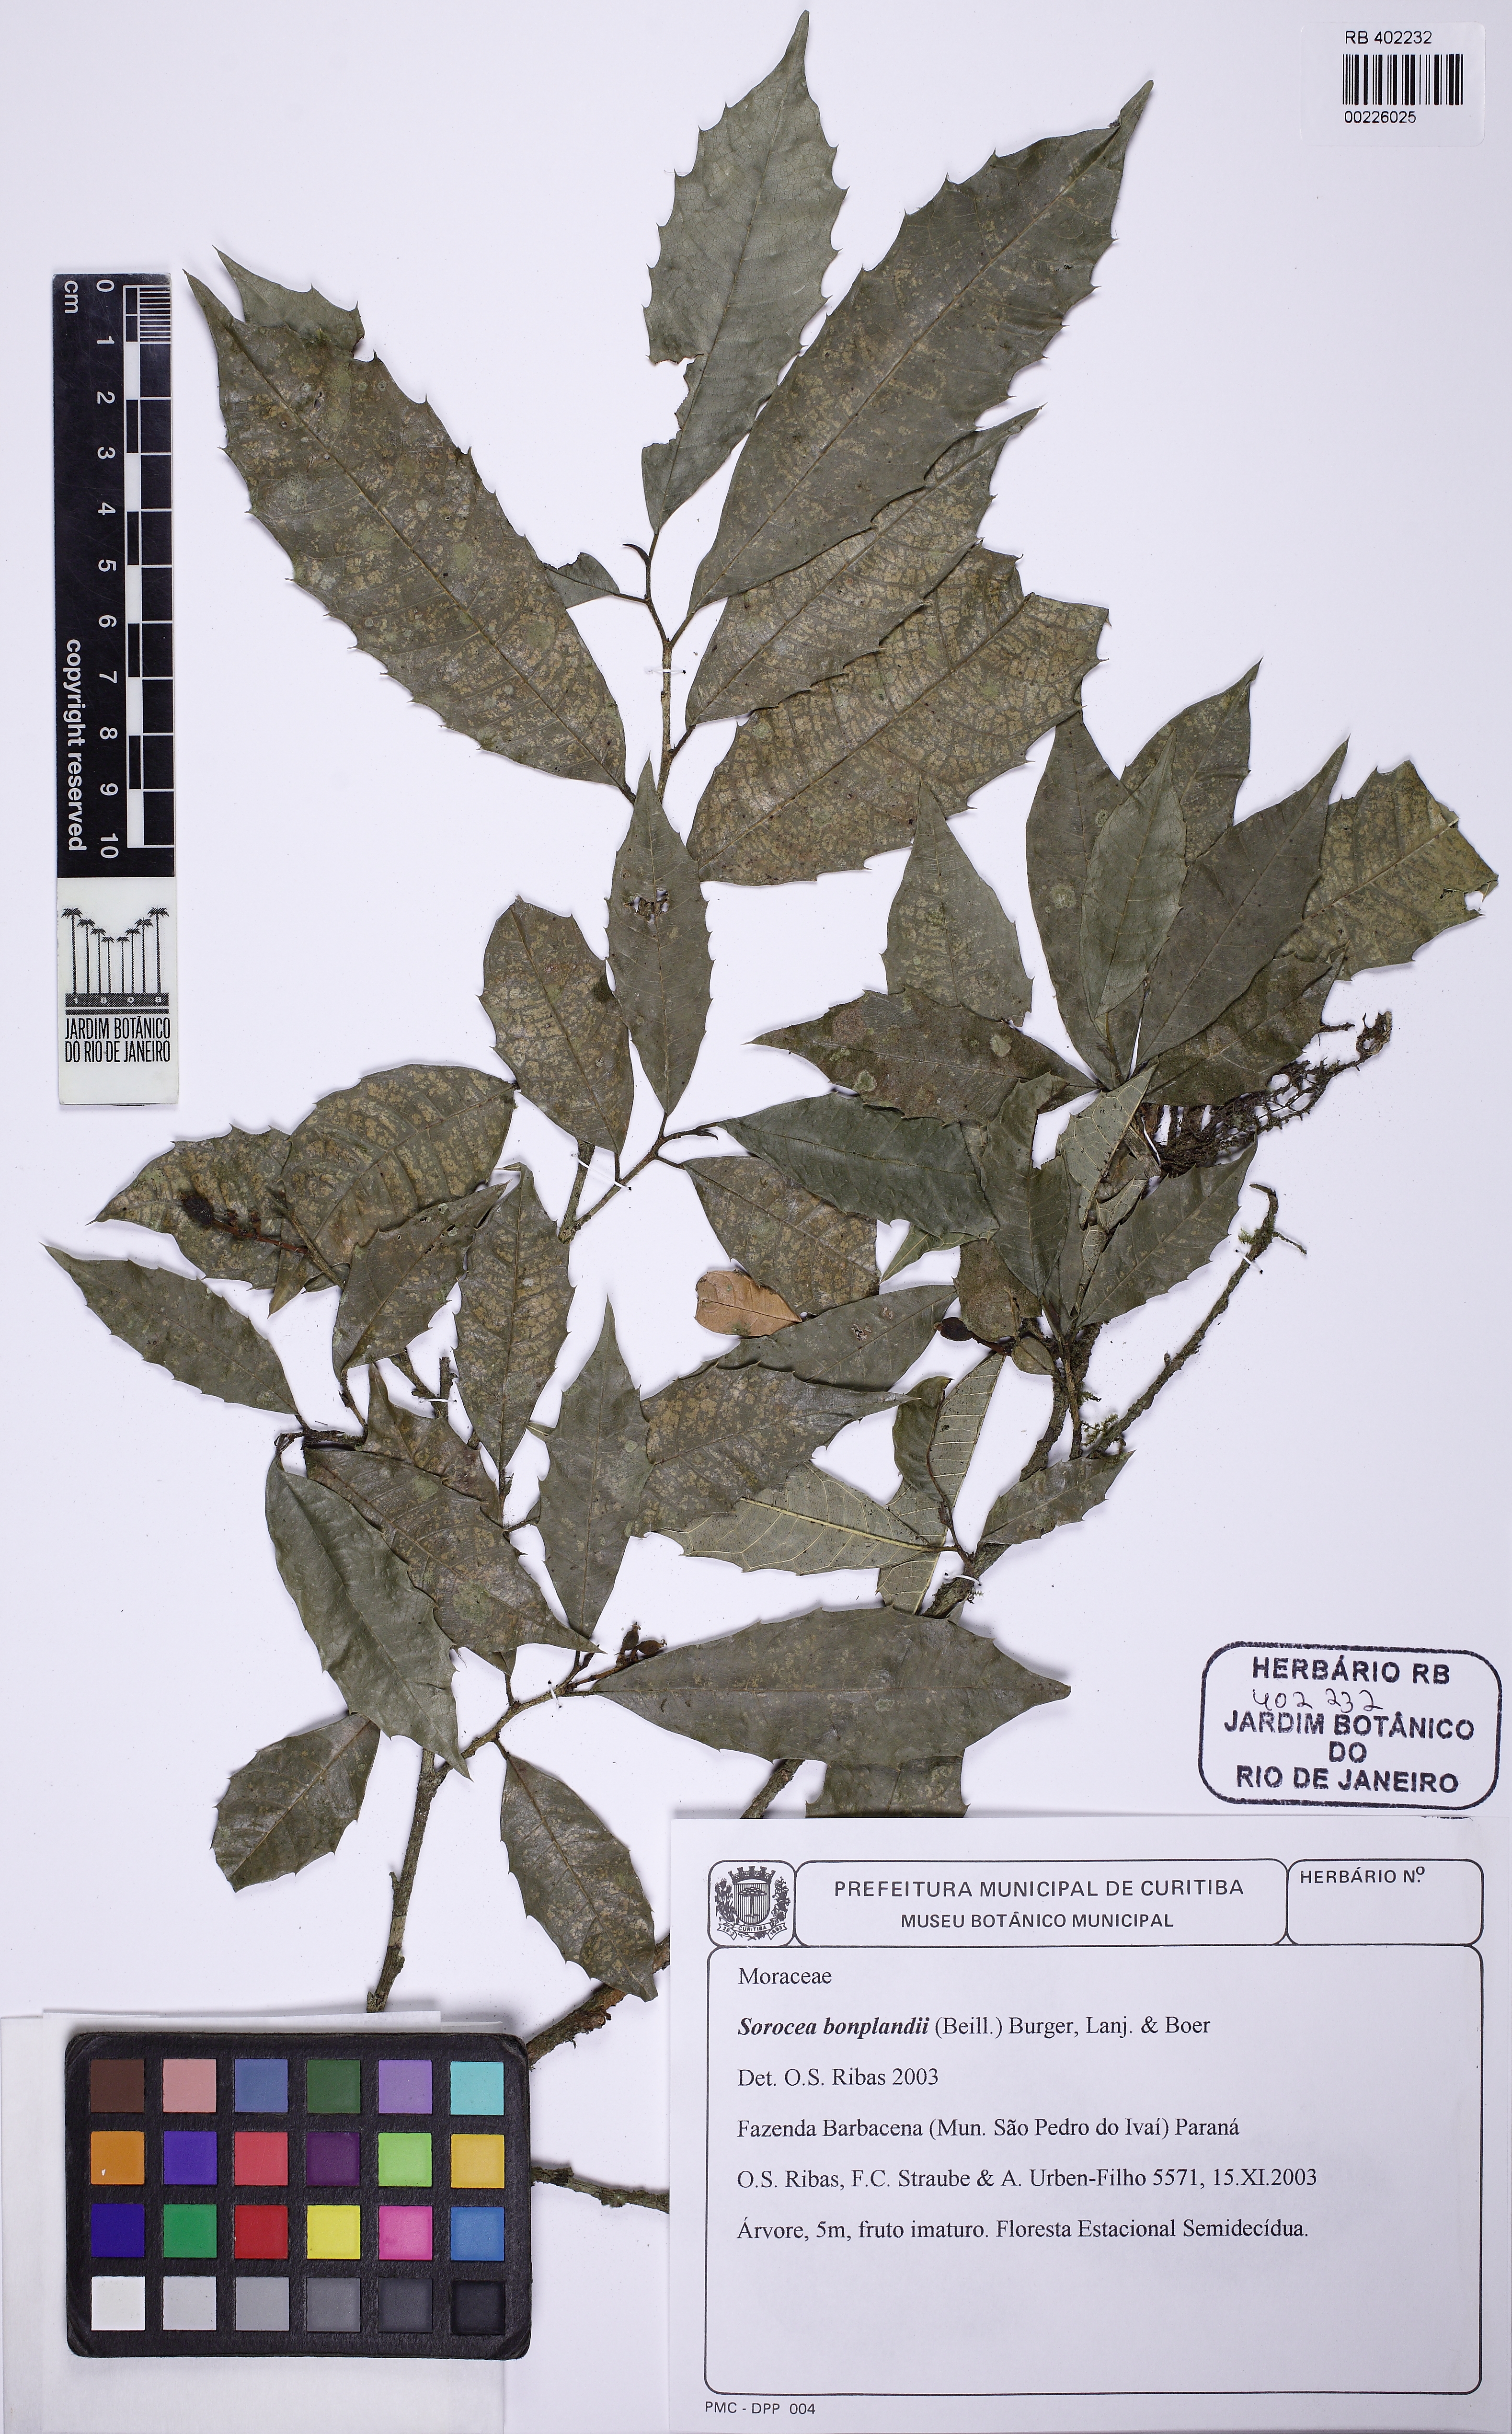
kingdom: Plantae
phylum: Tracheophyta
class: Magnoliopsida
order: Rosales
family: Moraceae
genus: Sorocea
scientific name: Sorocea bonplandii
